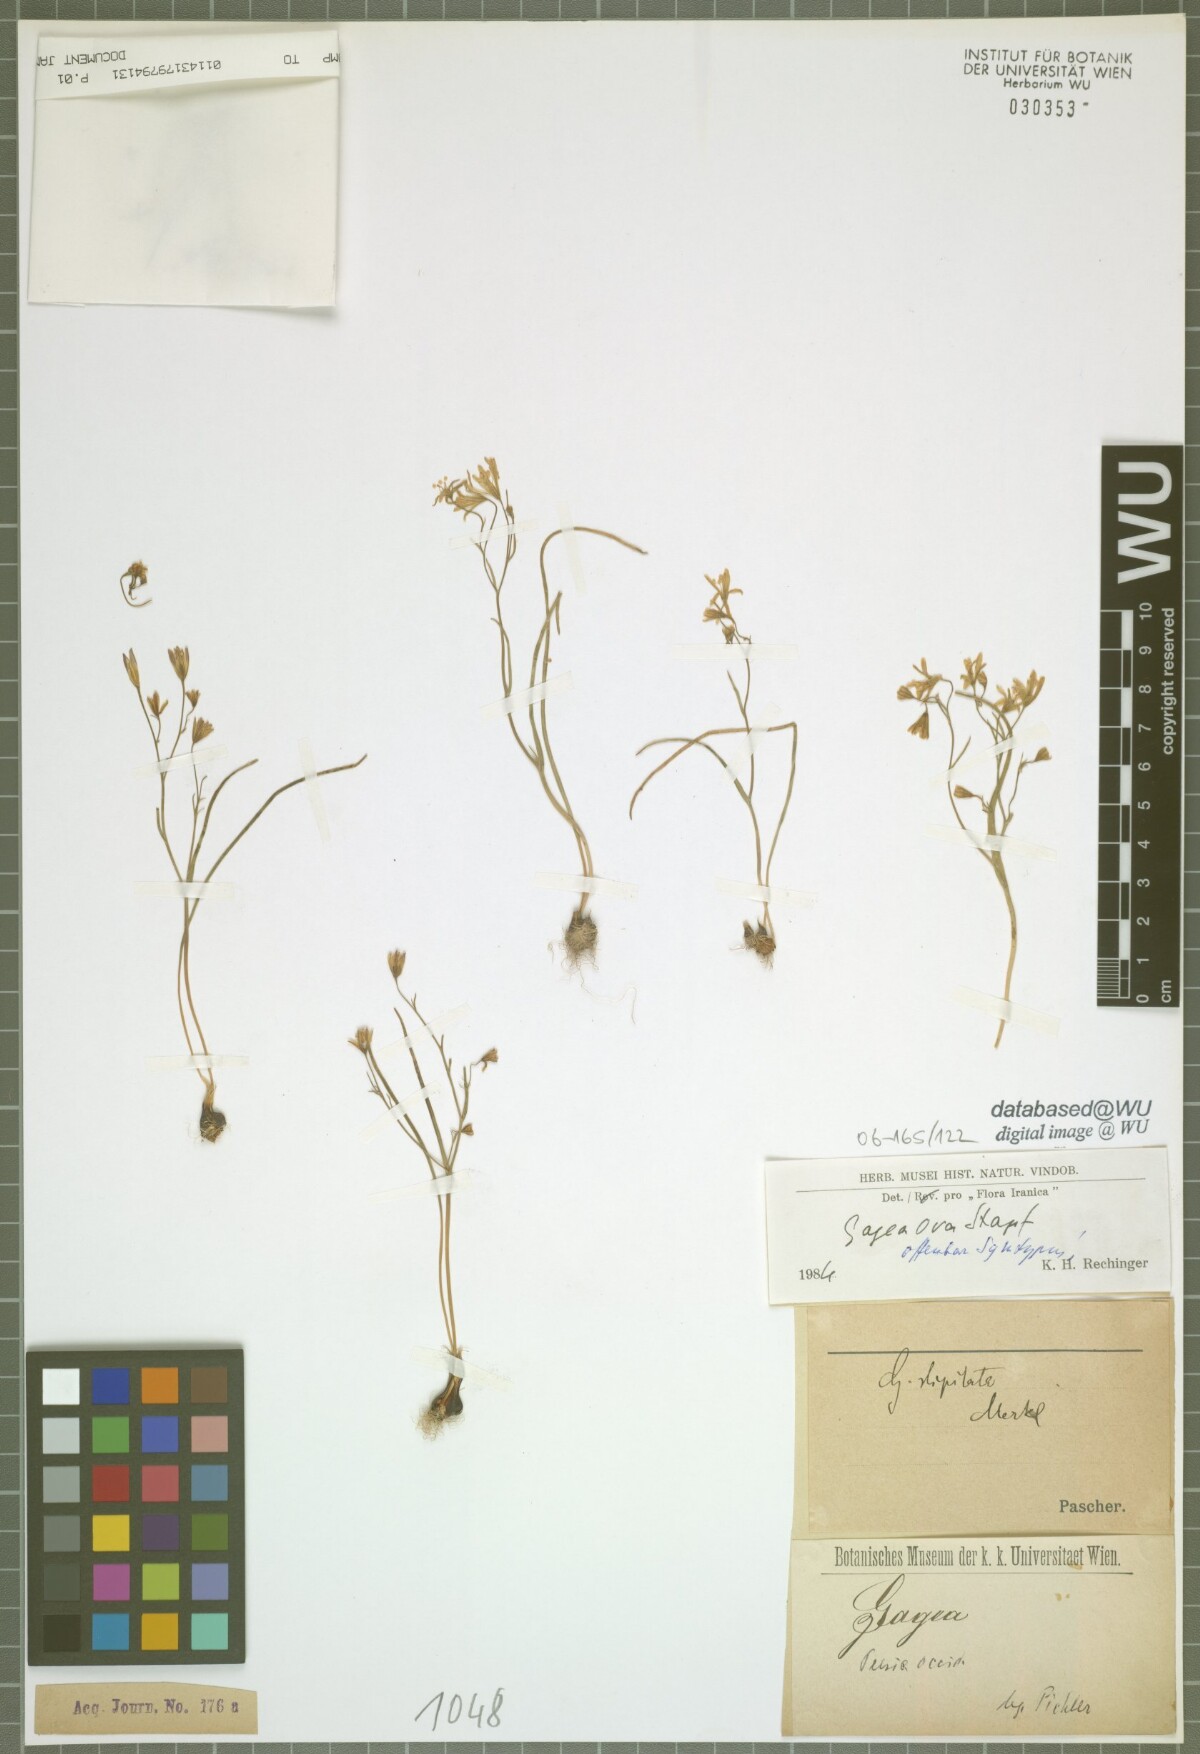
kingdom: Plantae
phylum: Tracheophyta
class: Liliopsida
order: Liliales
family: Liliaceae
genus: Gagea
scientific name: Gagea kunawurensis
